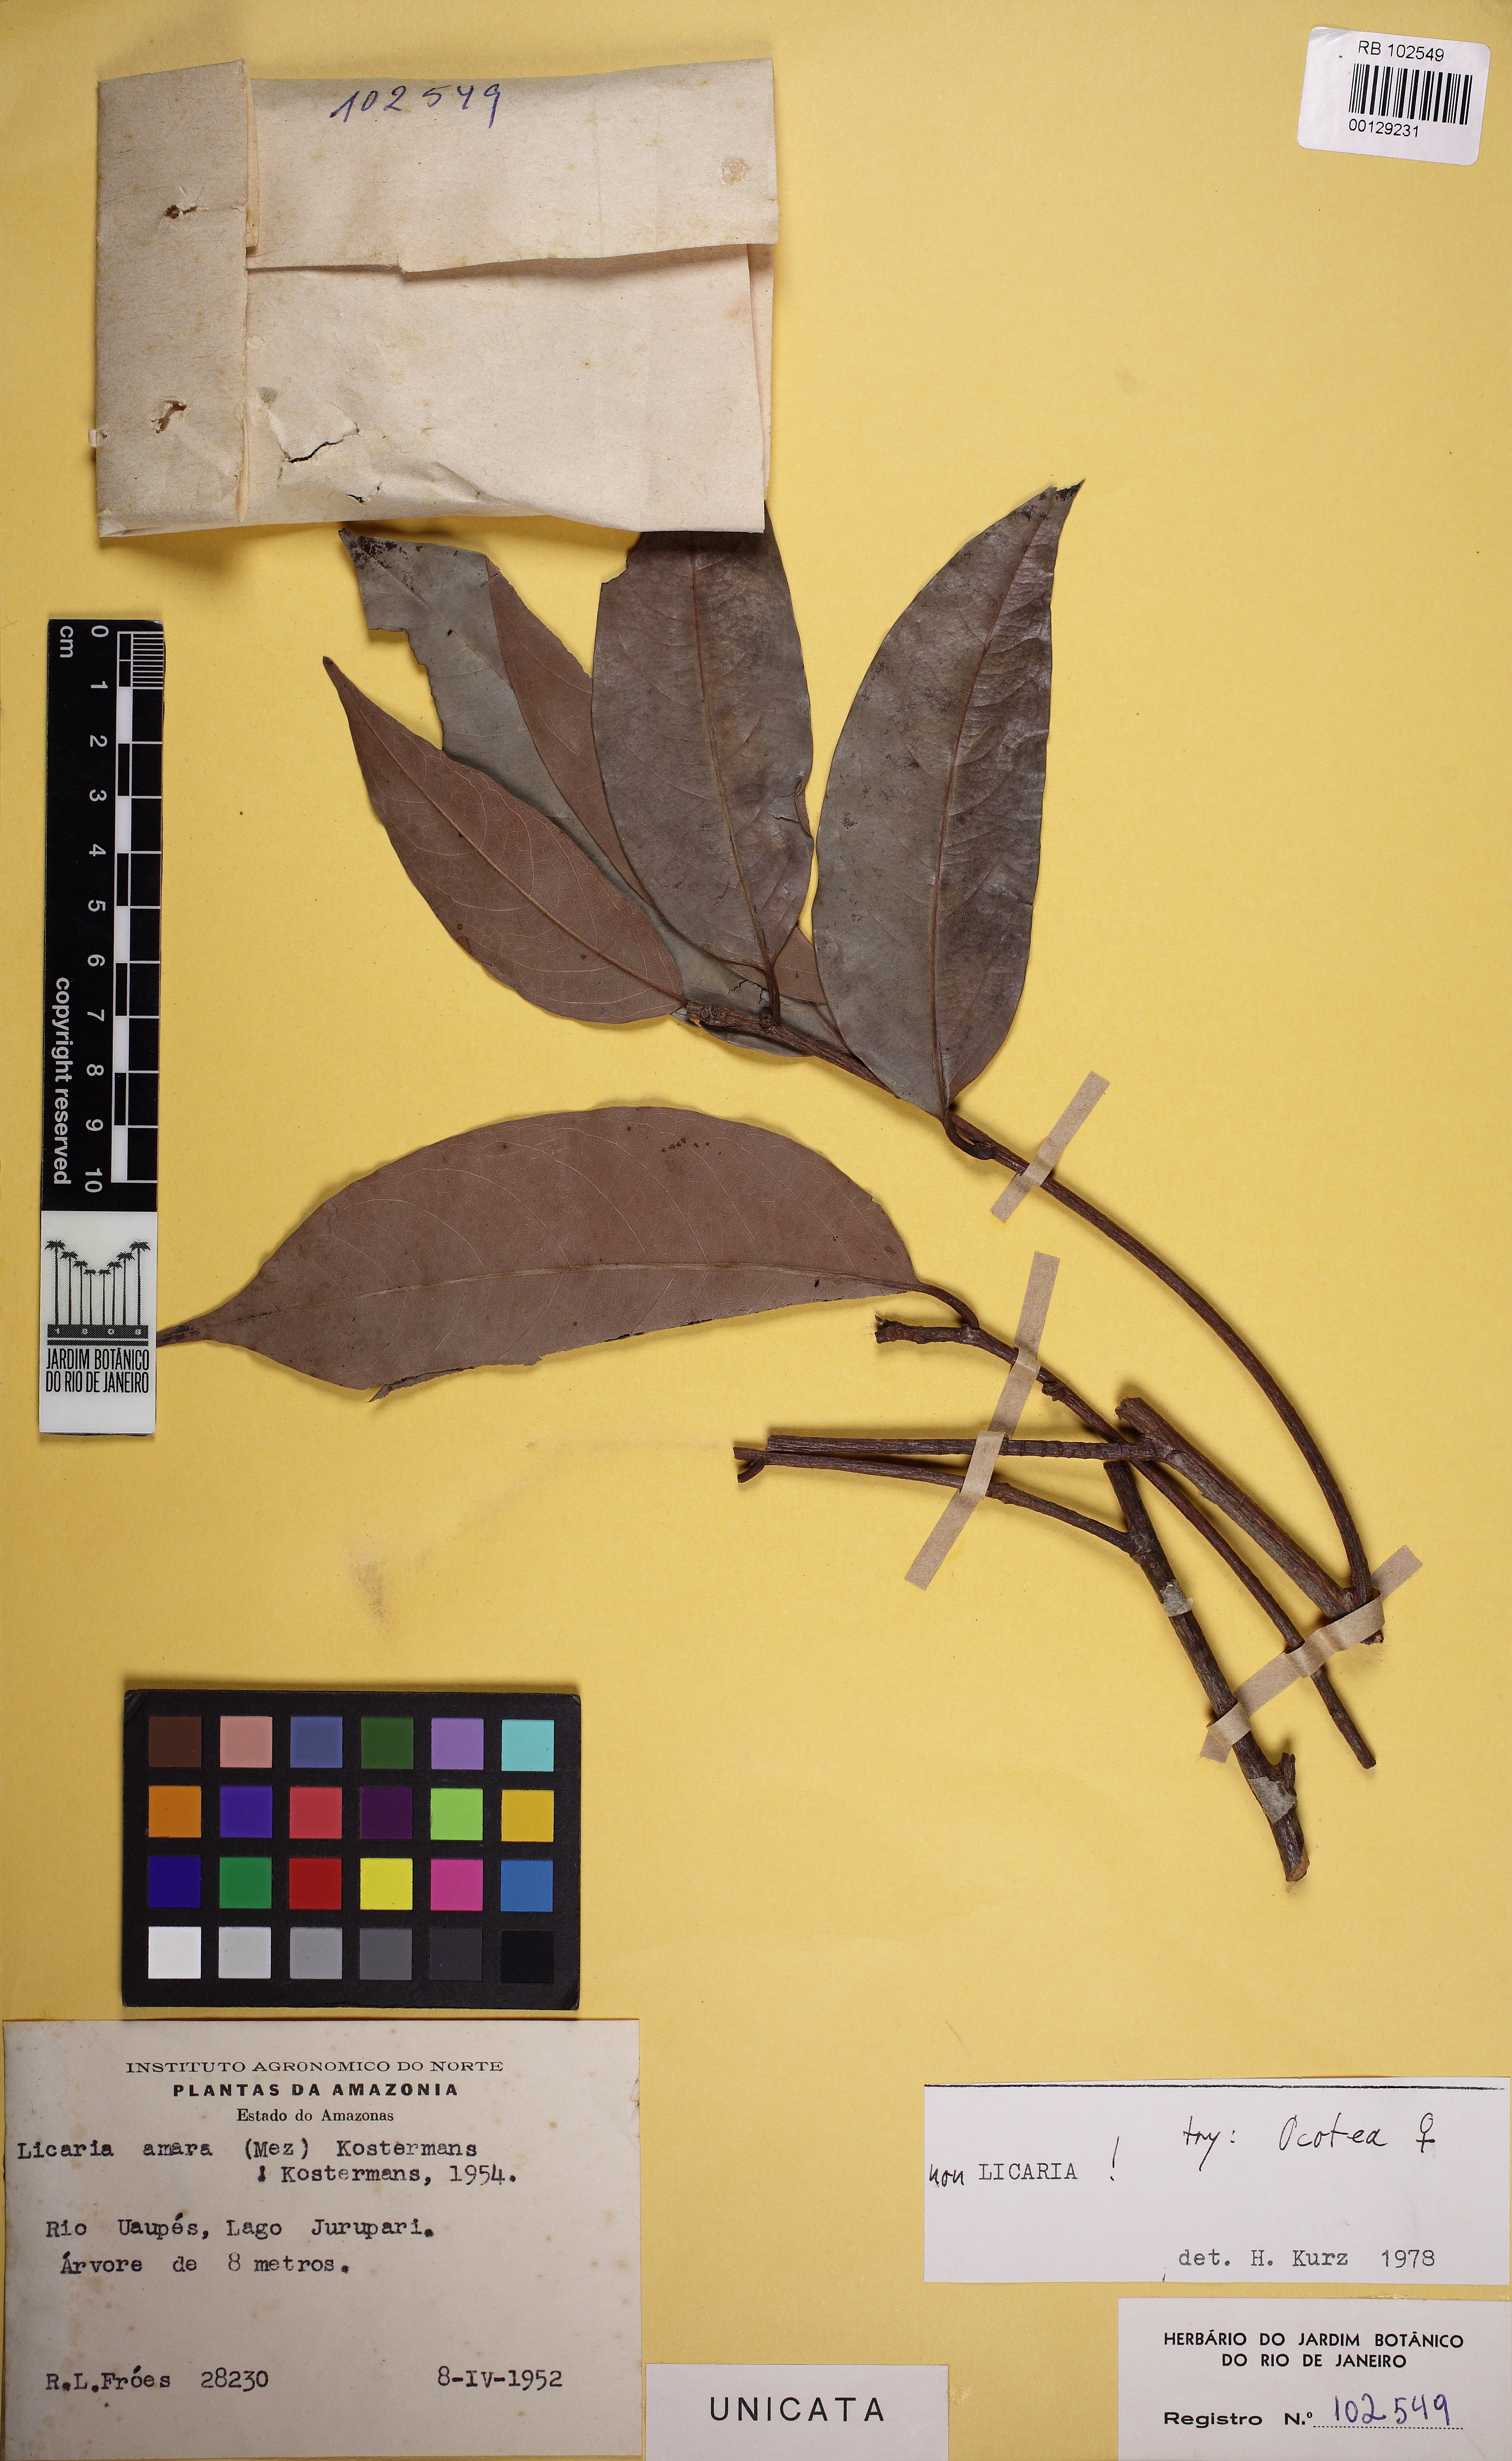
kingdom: Plantae
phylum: Tracheophyta
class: Magnoliopsida
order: Laurales
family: Lauraceae
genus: Licaria
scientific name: Licaria
